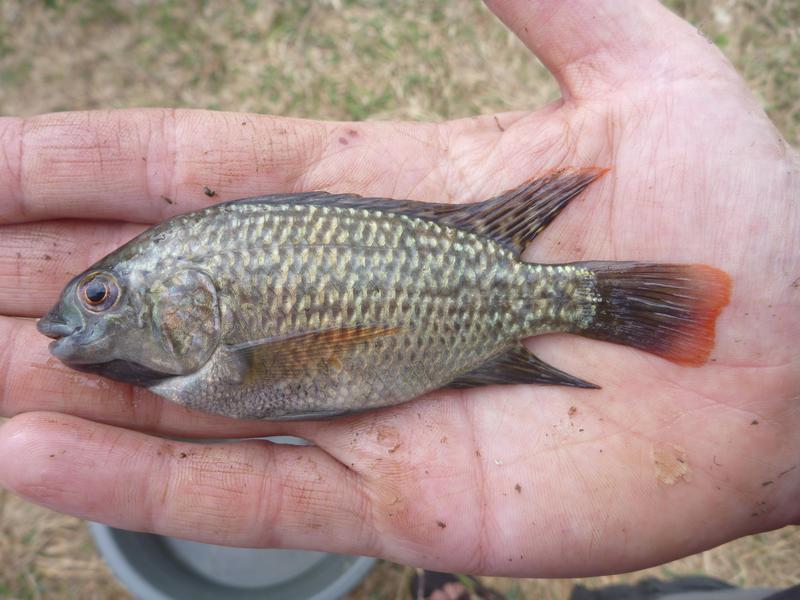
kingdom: Animalia
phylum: Chordata
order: Perciformes
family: Cichlidae
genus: Oreochromis
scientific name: Oreochromis shiranus
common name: Chilwa tilapia
